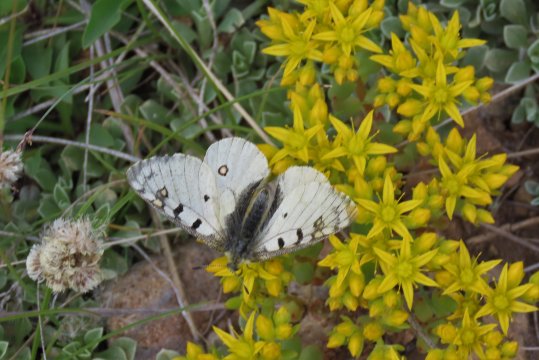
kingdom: Animalia
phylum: Arthropoda
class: Insecta
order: Lepidoptera
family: Papilionidae
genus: Parnassius
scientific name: Parnassius smintheus
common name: Rocky Mountain Parnassian
